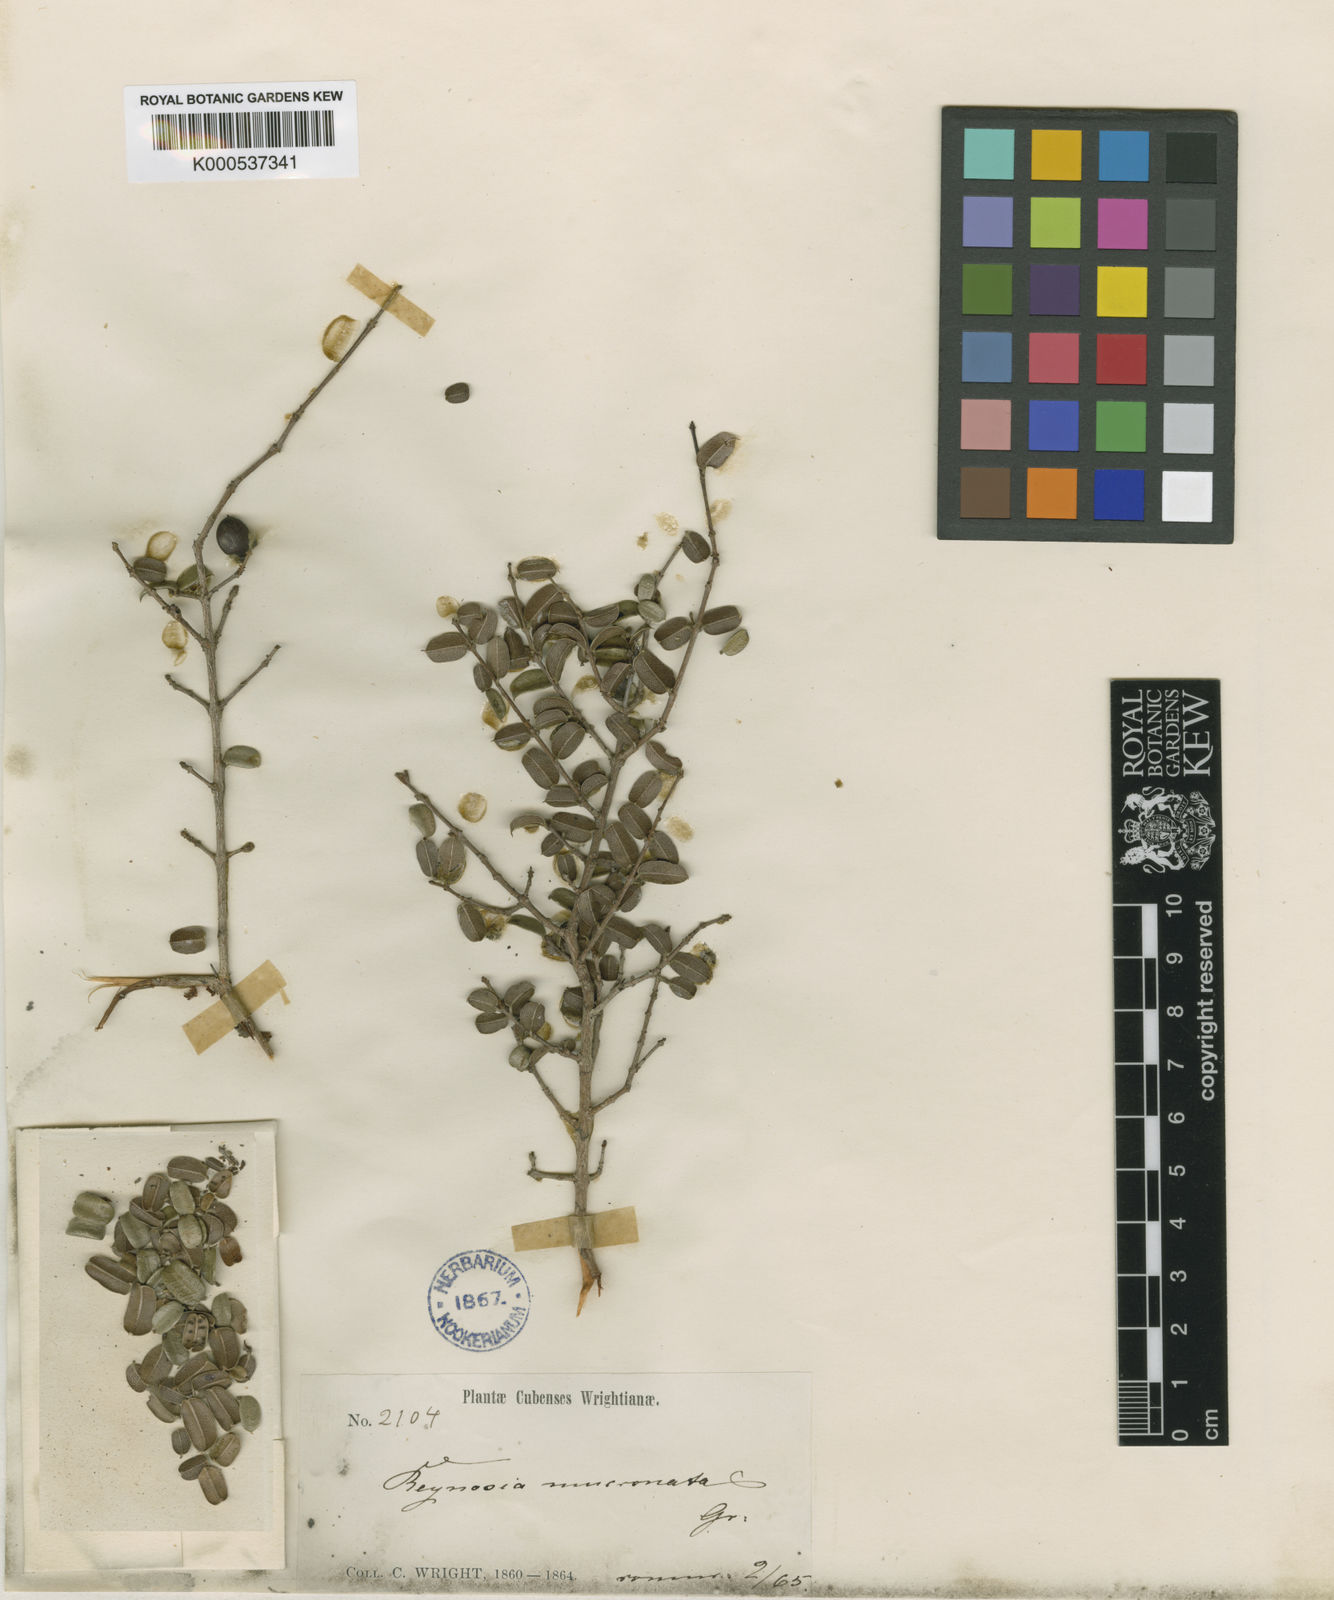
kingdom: Plantae
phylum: Tracheophyta
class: Magnoliopsida
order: Rosales
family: Rhamnaceae
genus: Reynosia
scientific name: Reynosia mucronata
